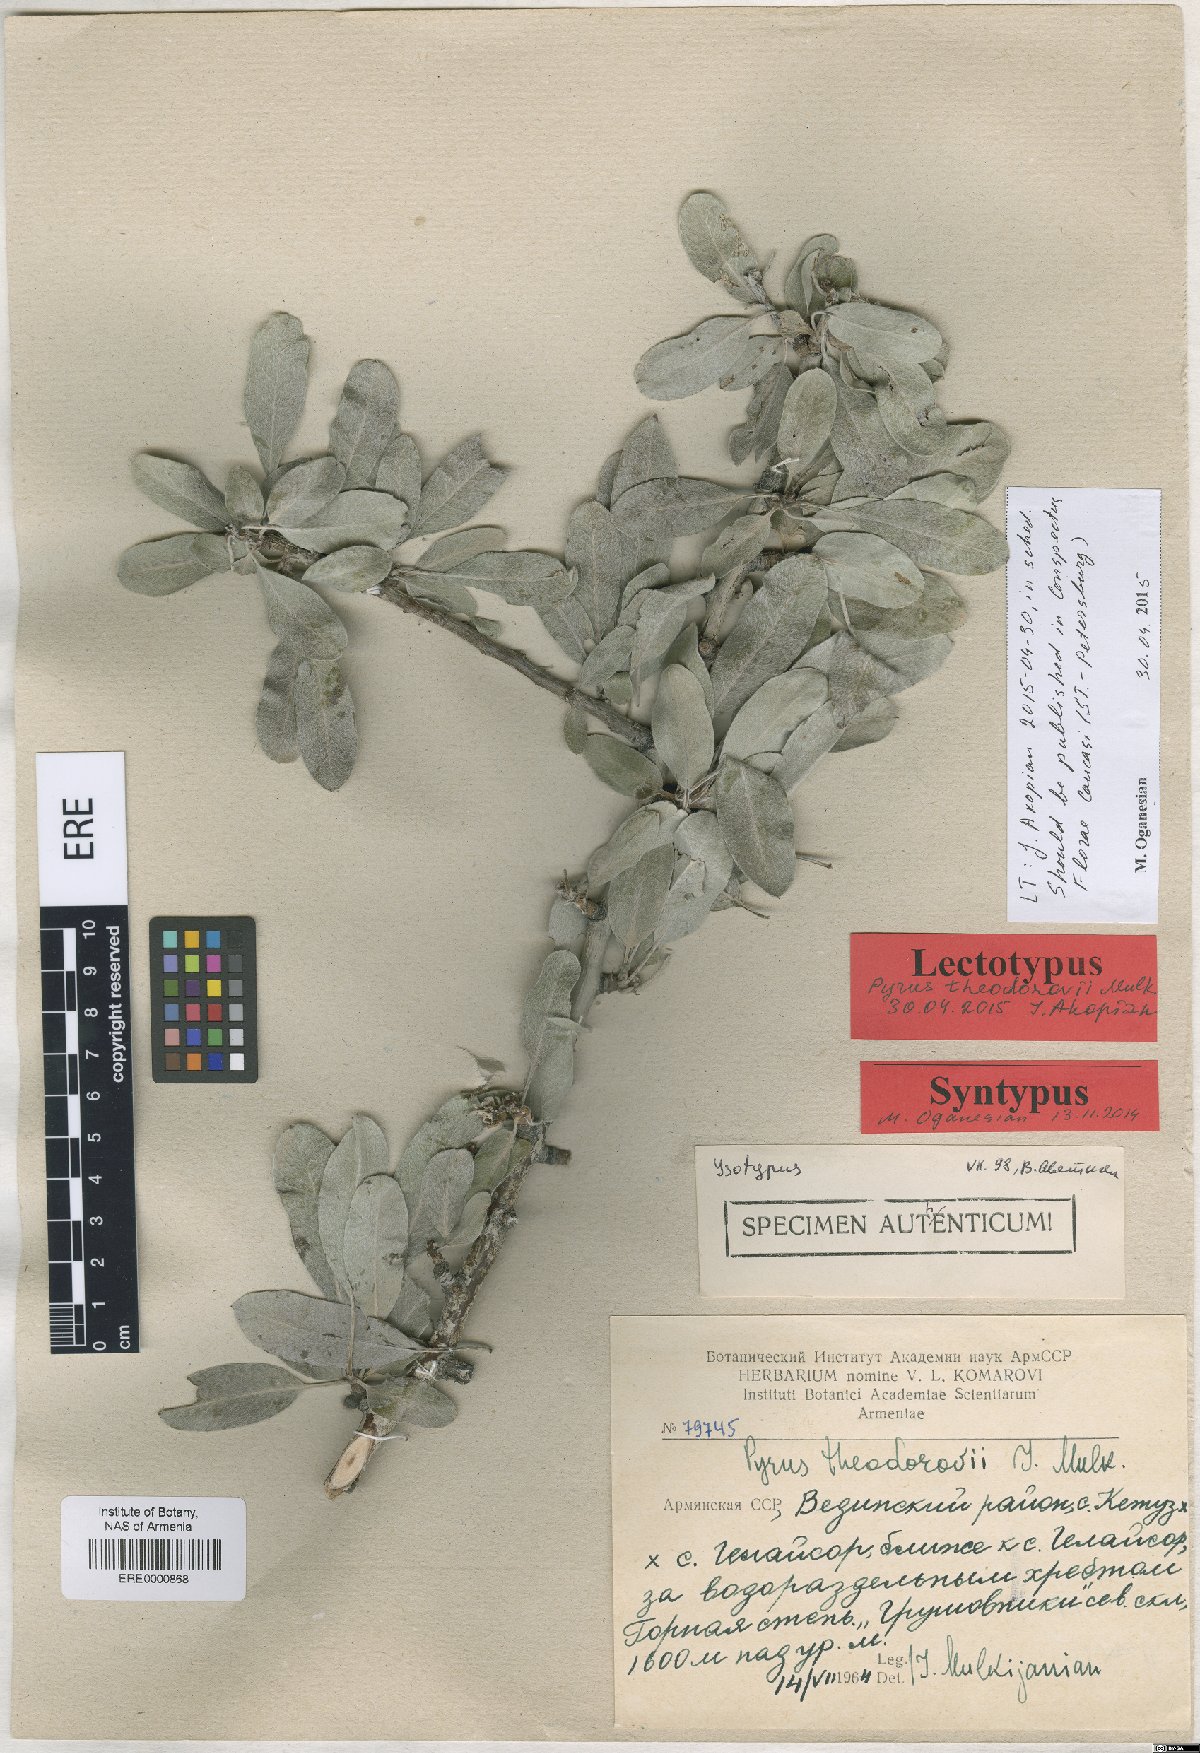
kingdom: Plantae
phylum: Tracheophyta
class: Magnoliopsida
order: Rosales
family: Rosaceae
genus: Pyrus
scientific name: Pyrus theodorovii
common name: Teodorov's pear
